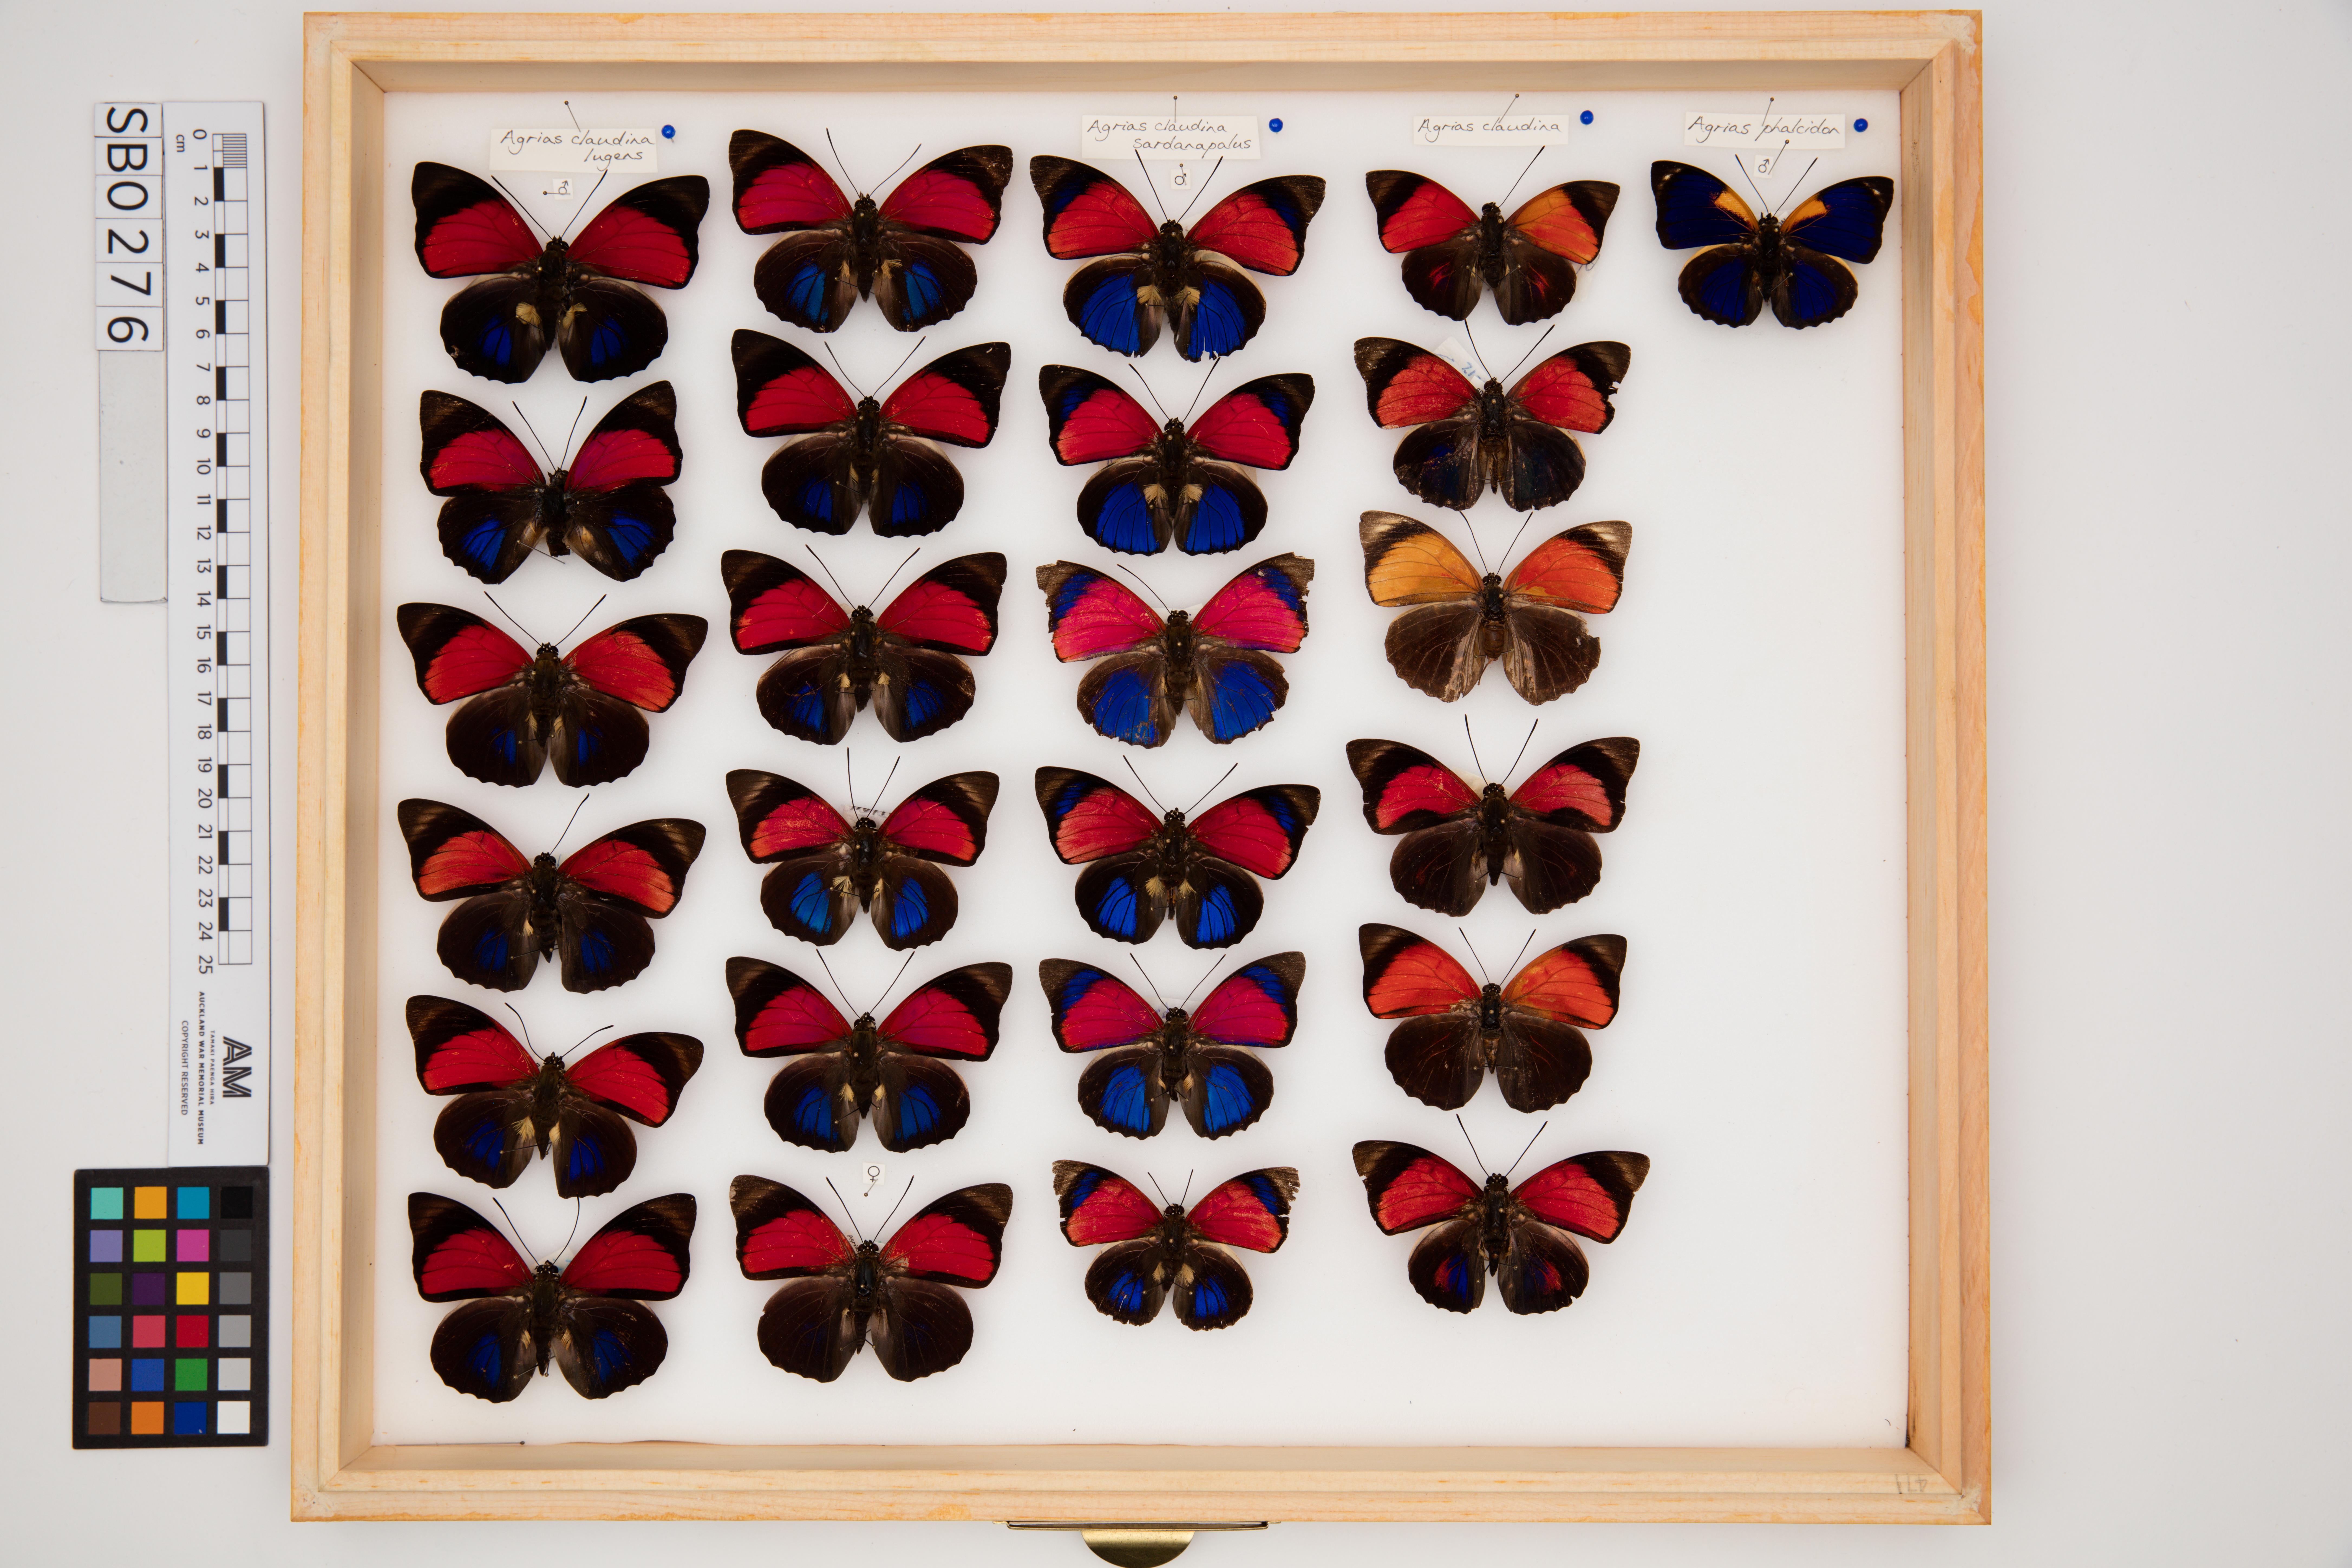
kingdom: Animalia
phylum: Arthropoda
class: Insecta
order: Lepidoptera
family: Nymphalidae
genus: Agrias
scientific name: Agrias claudia
